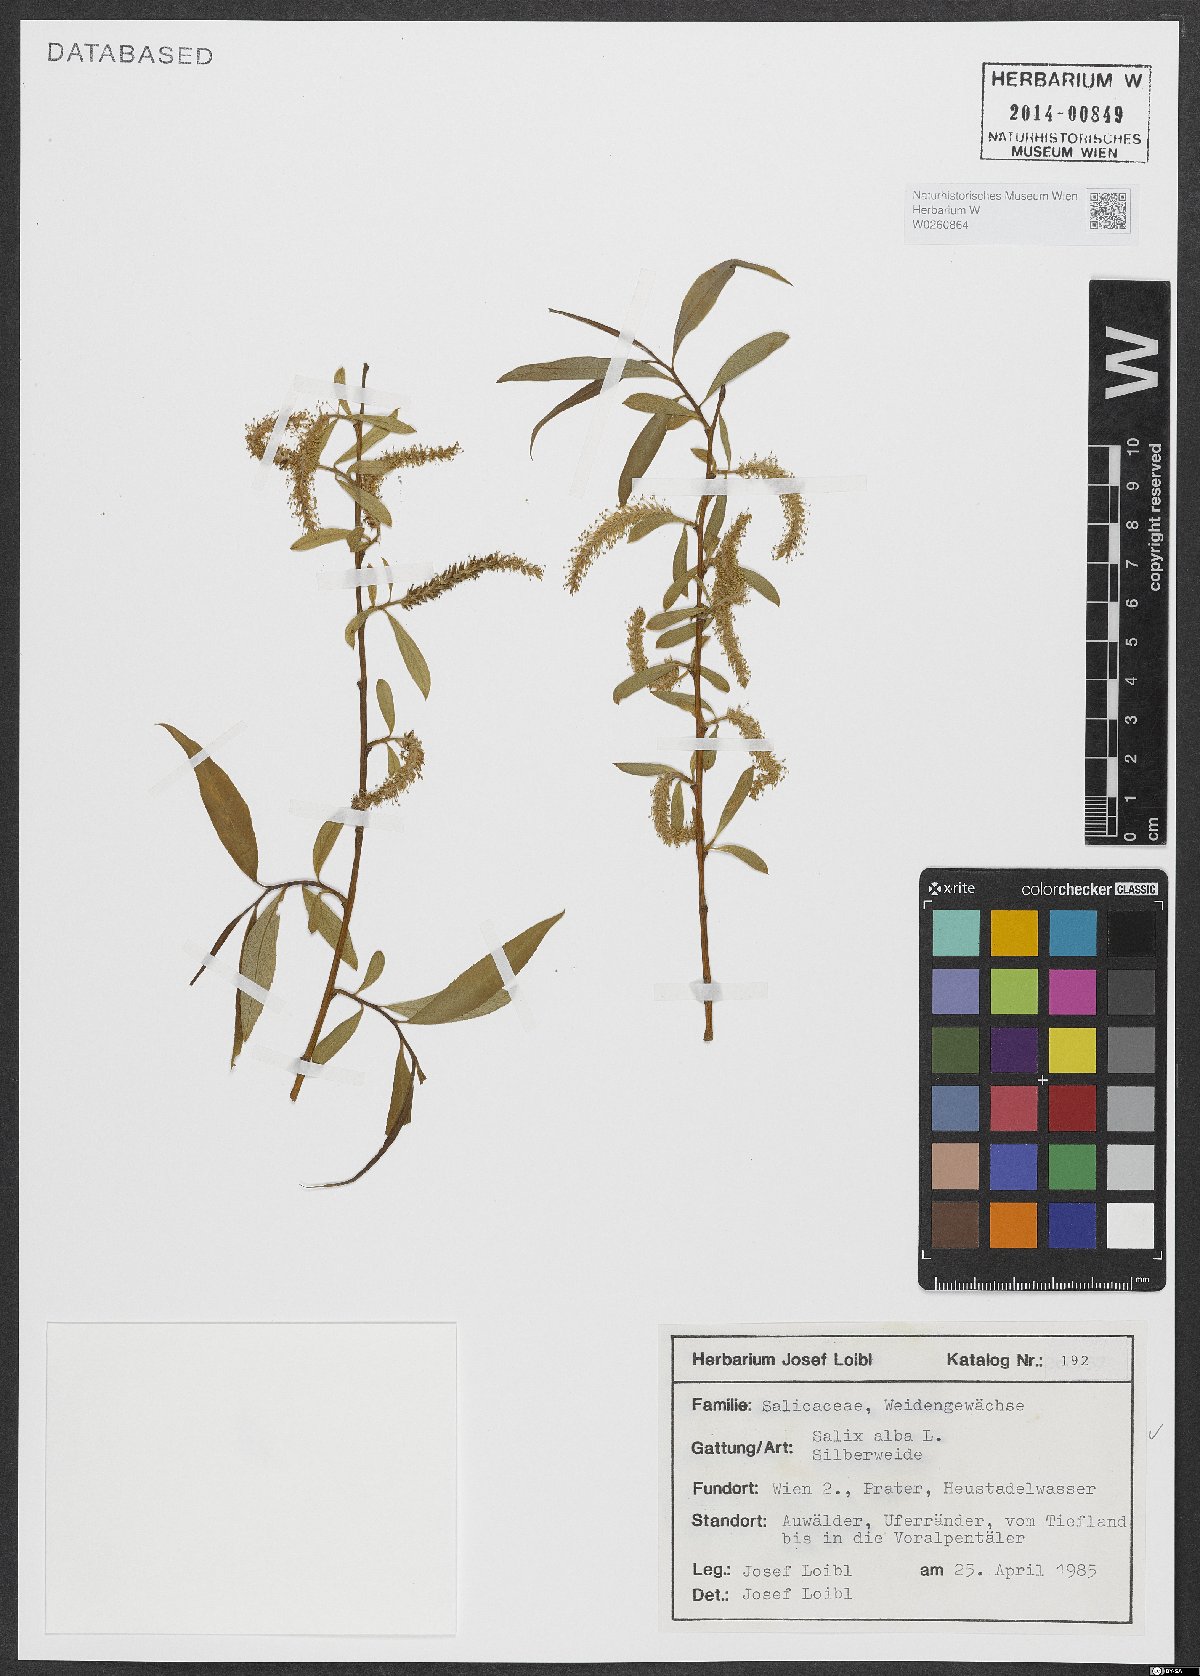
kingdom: Plantae
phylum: Tracheophyta
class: Magnoliopsida
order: Malpighiales
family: Salicaceae
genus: Salix
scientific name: Salix alba
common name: White willow
